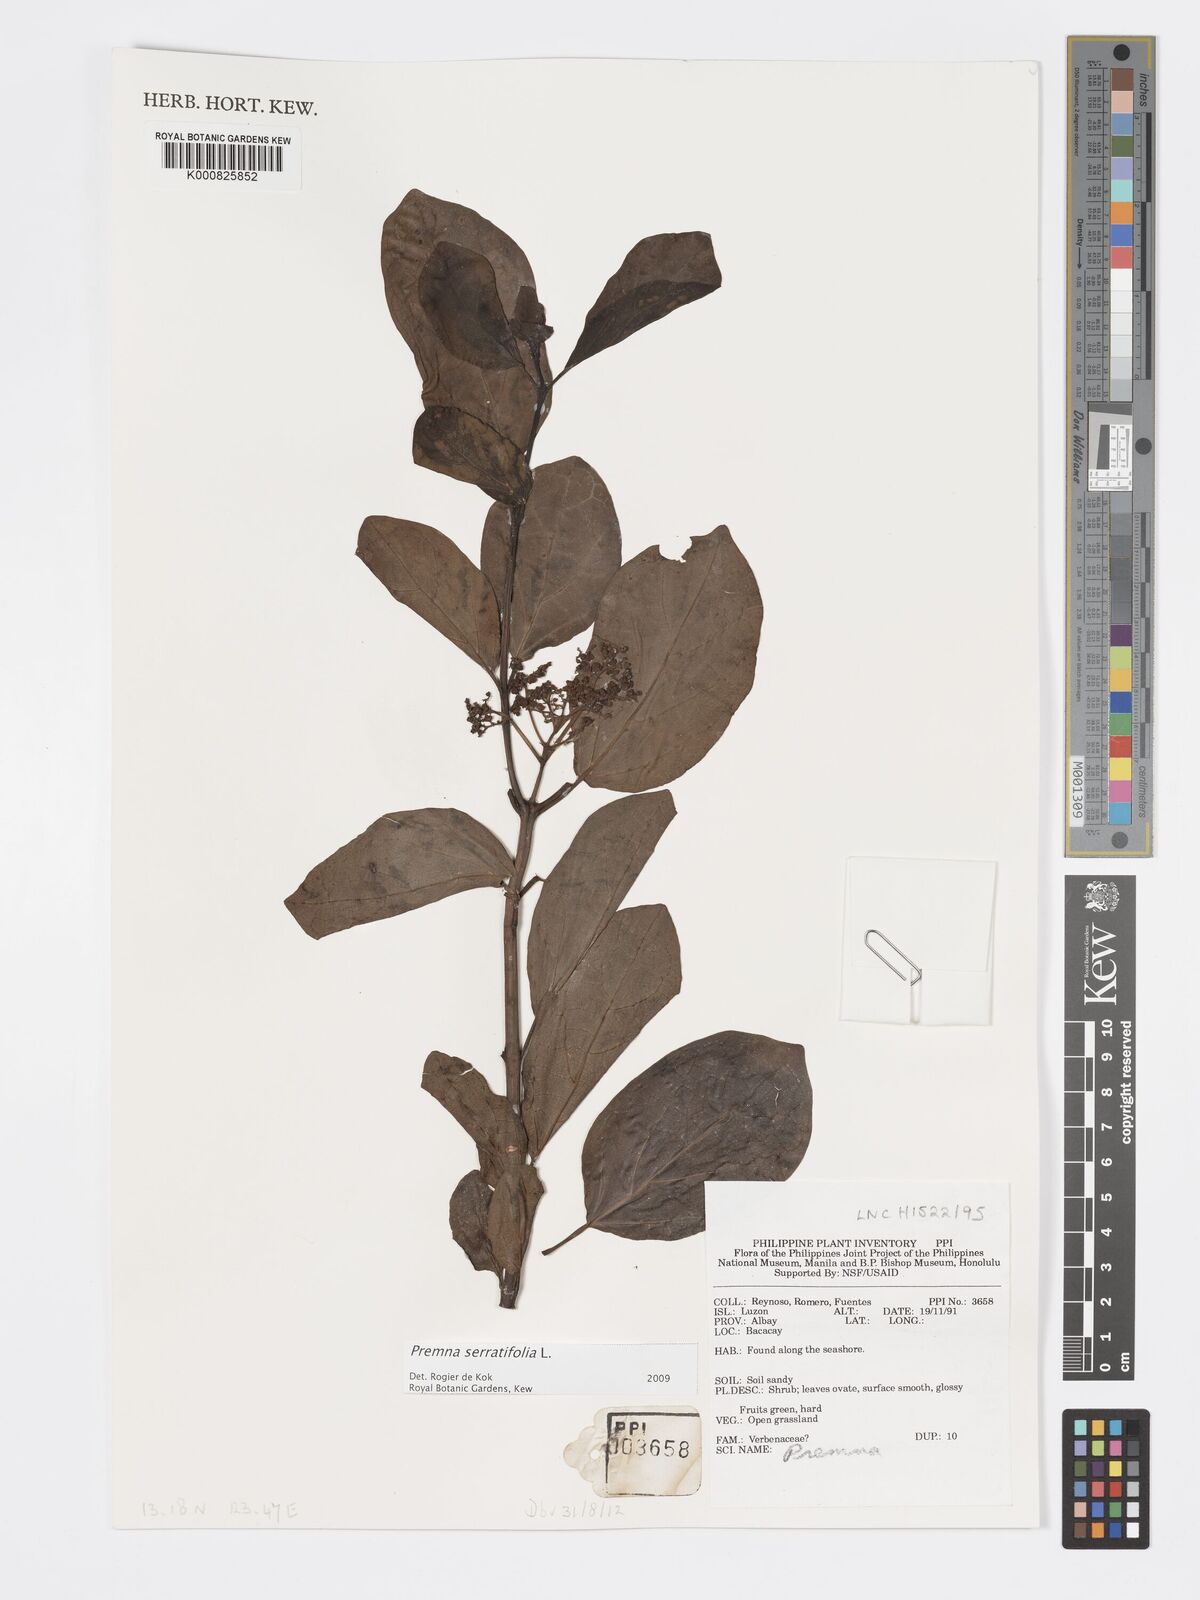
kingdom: Plantae
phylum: Tracheophyta
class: Magnoliopsida
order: Lamiales
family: Lamiaceae
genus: Premna
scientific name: Premna serratifolia
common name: Bastard guelder
